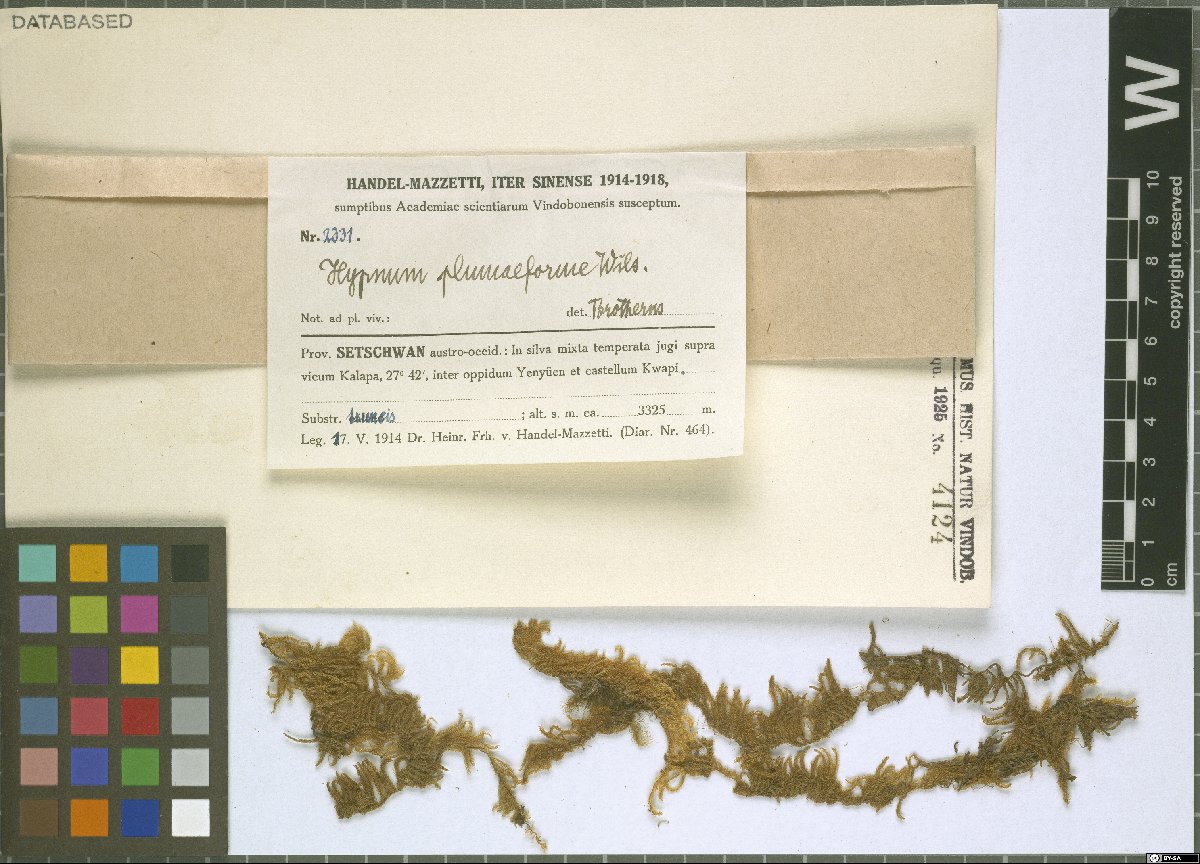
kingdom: Plantae
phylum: Bryophyta
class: Bryopsida
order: Hypnales
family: Hypnaceae
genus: Hypnum
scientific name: Hypnum plumaeforme
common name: Cypress-leaved plaitmoss
